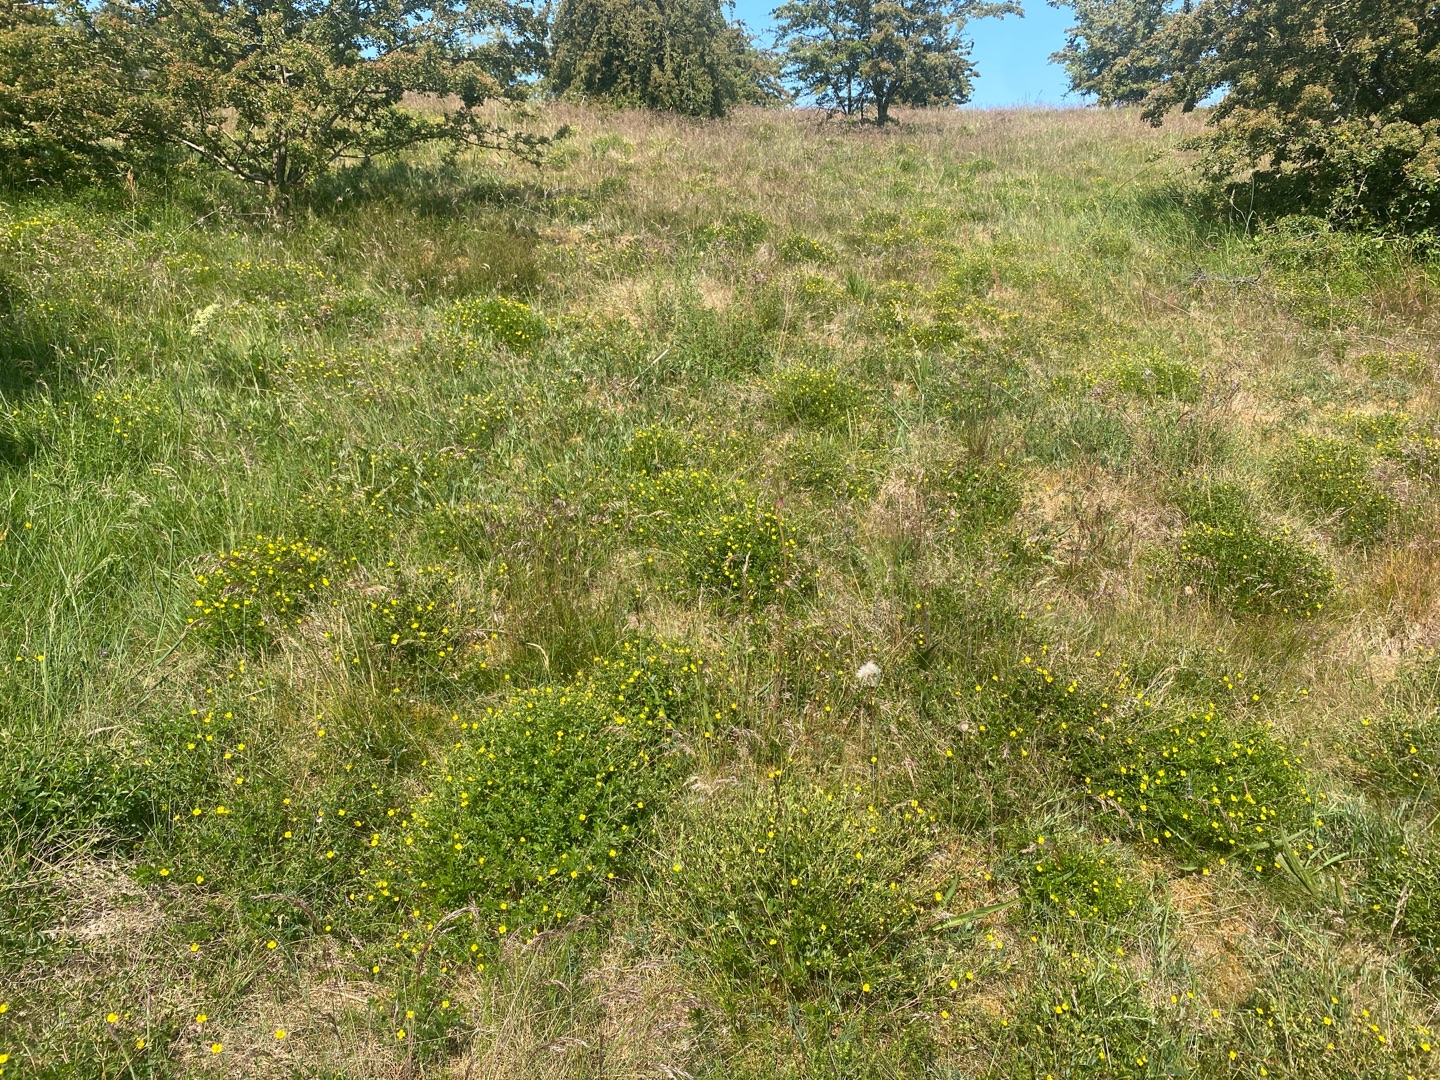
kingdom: Plantae
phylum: Tracheophyta
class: Magnoliopsida
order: Rosales
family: Rosaceae
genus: Potentilla
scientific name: Potentilla erecta
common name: Tormentil
